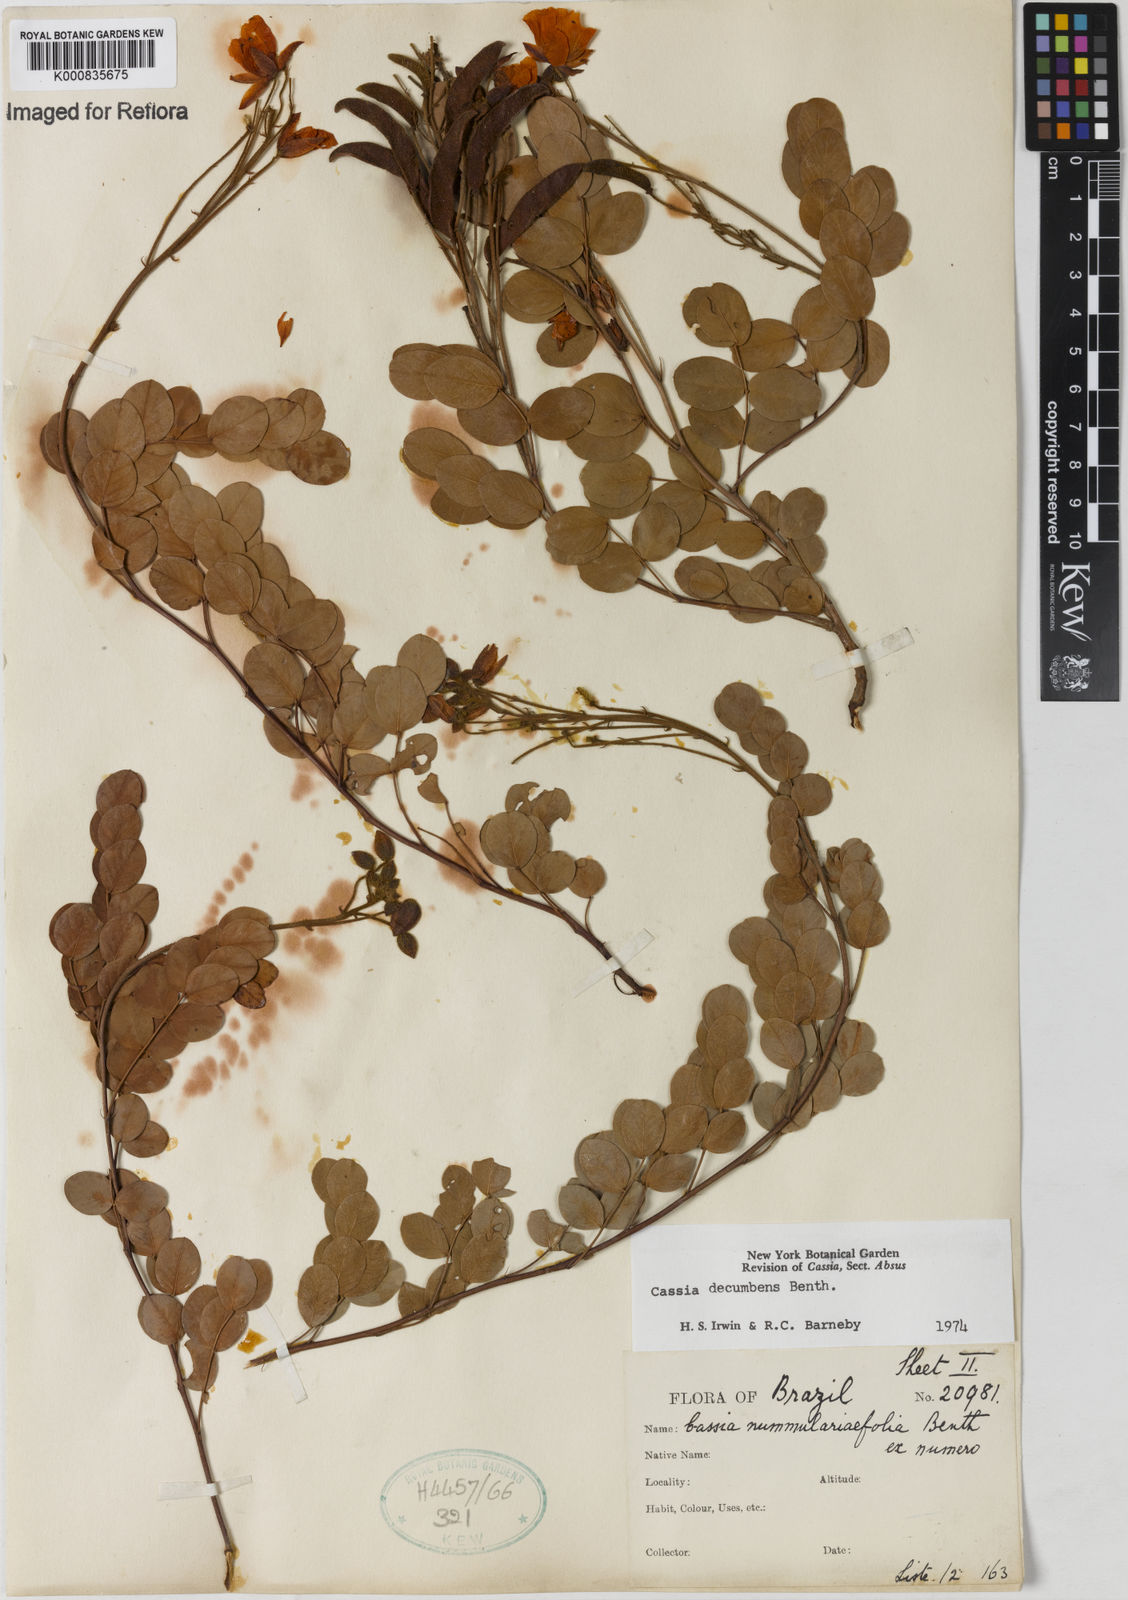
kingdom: Plantae
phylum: Tracheophyta
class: Magnoliopsida
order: Fabales
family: Fabaceae
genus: Chamaecrista
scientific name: Chamaecrista decumbens
